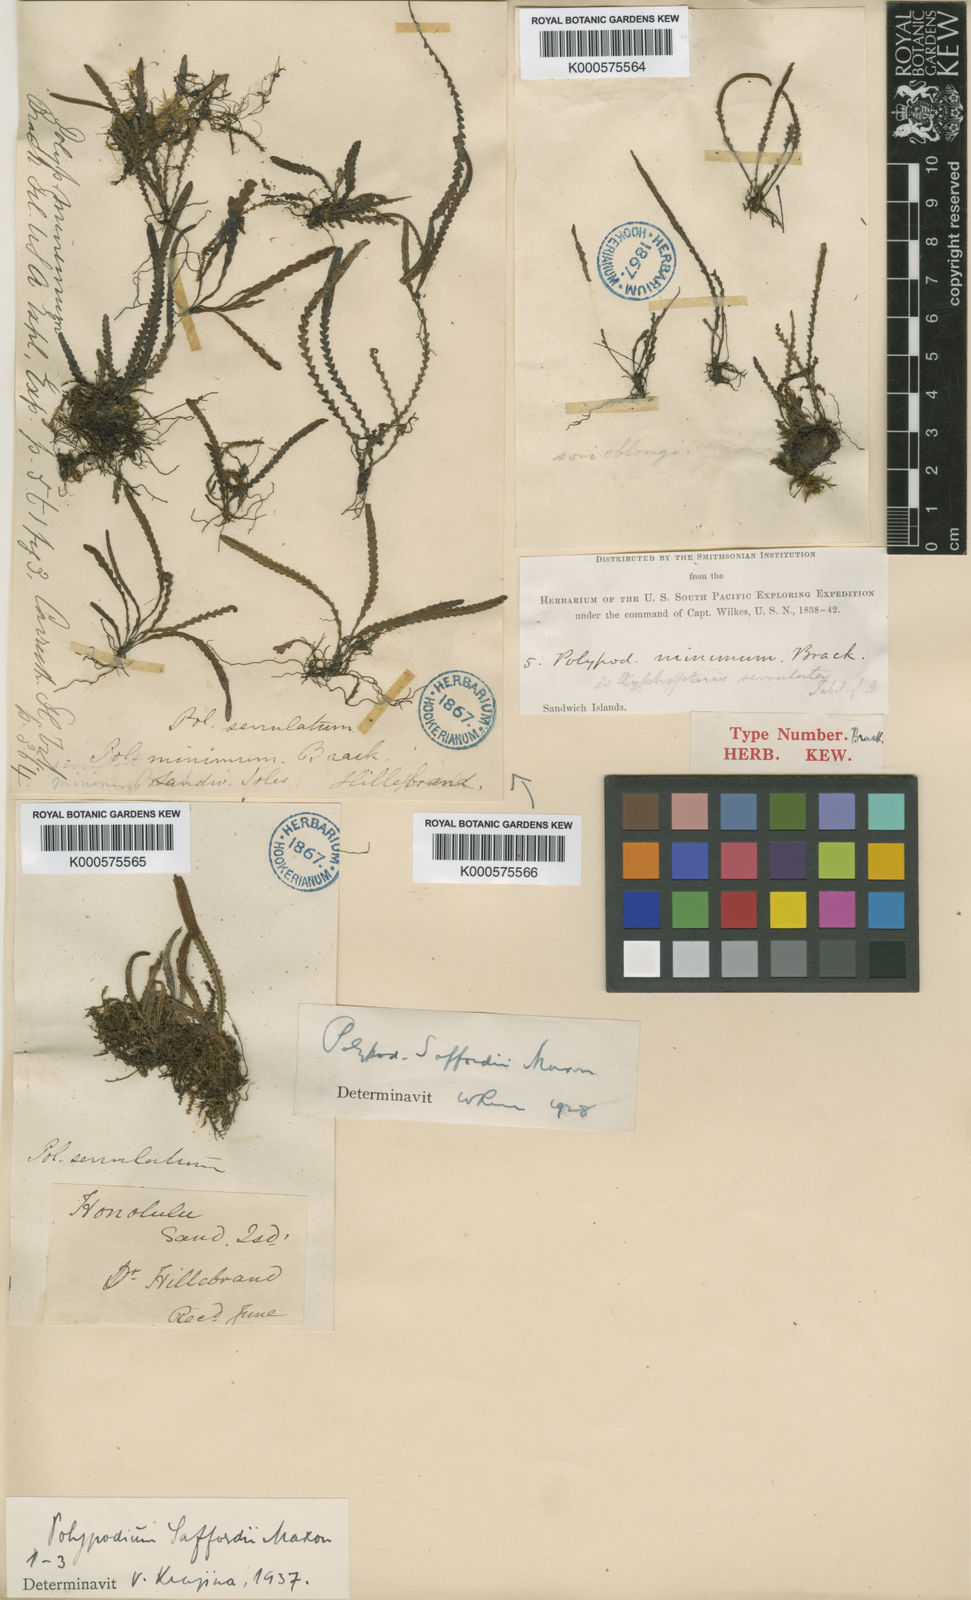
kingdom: Plantae
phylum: Tracheophyta
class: Polypodiopsida
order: Polypodiales
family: Polypodiaceae
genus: Stenogrammitis
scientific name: Stenogrammitis saffordii
